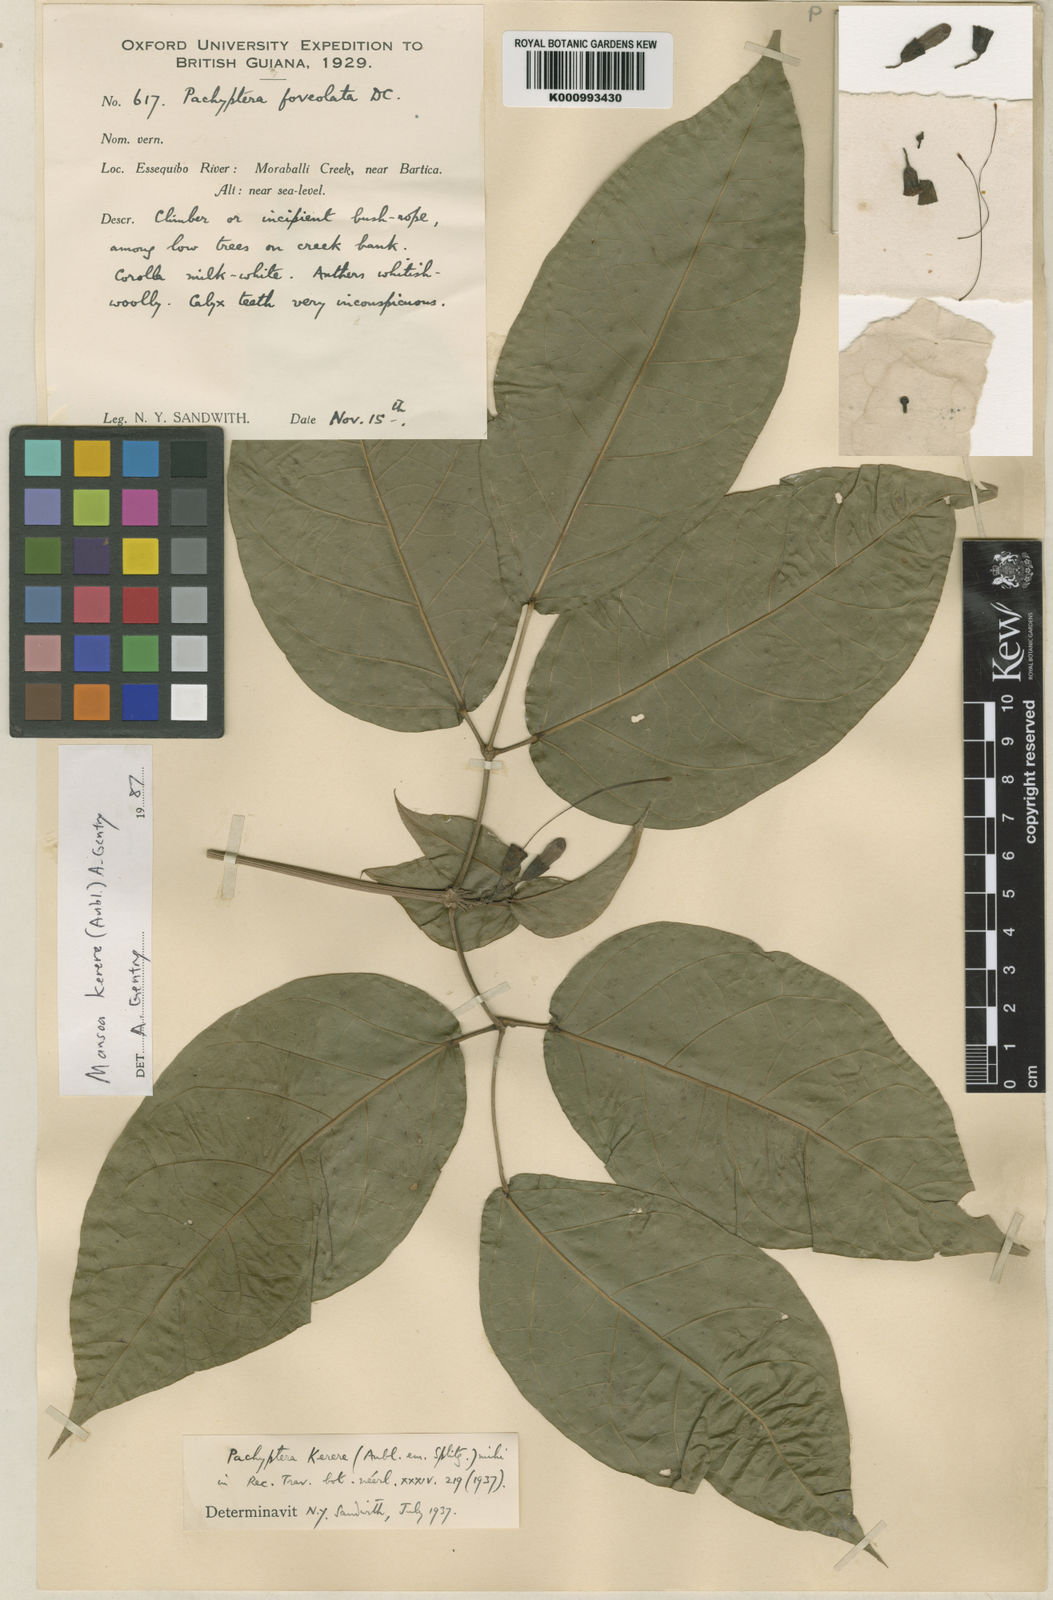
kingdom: Plantae
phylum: Tracheophyta
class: Magnoliopsida
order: Lamiales
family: Bignoniaceae
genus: Pachyptera
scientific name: Pachyptera kerere
